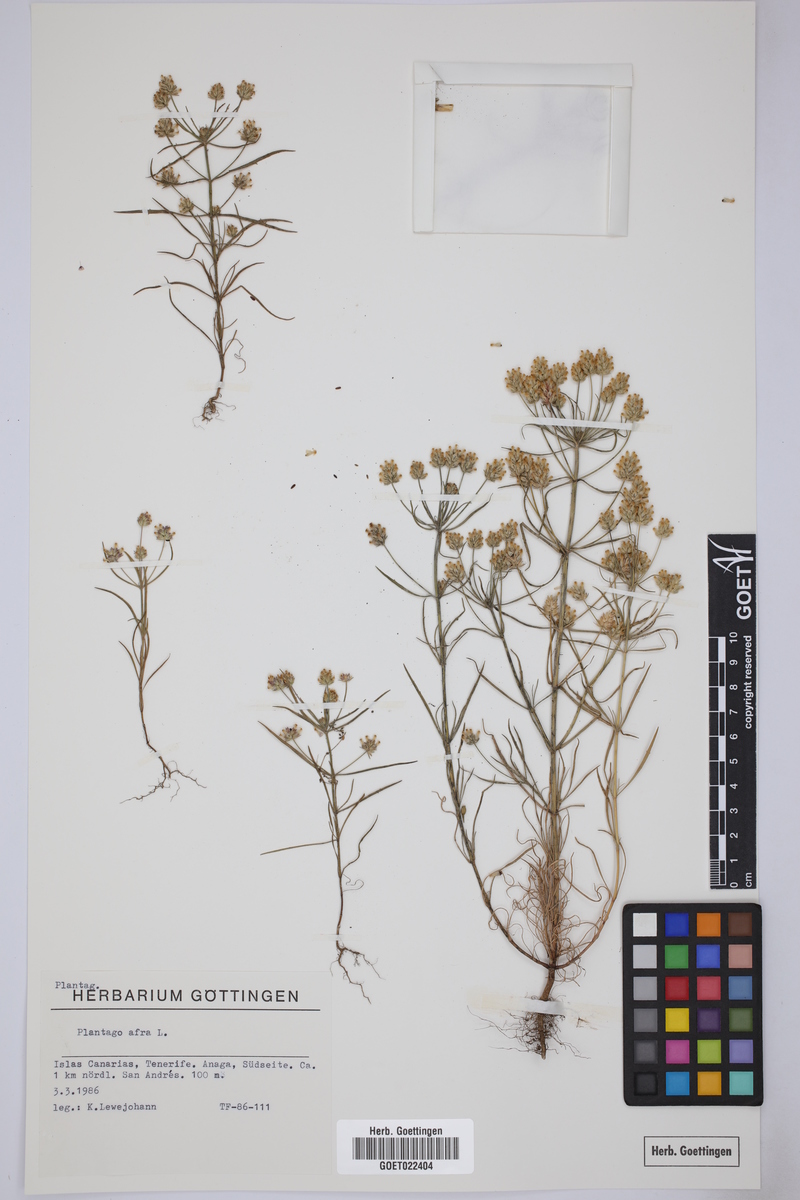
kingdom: Plantae
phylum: Tracheophyta
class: Magnoliopsida
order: Lamiales
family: Plantaginaceae
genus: Plantago
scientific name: Plantago afra
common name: Glandular plantain
